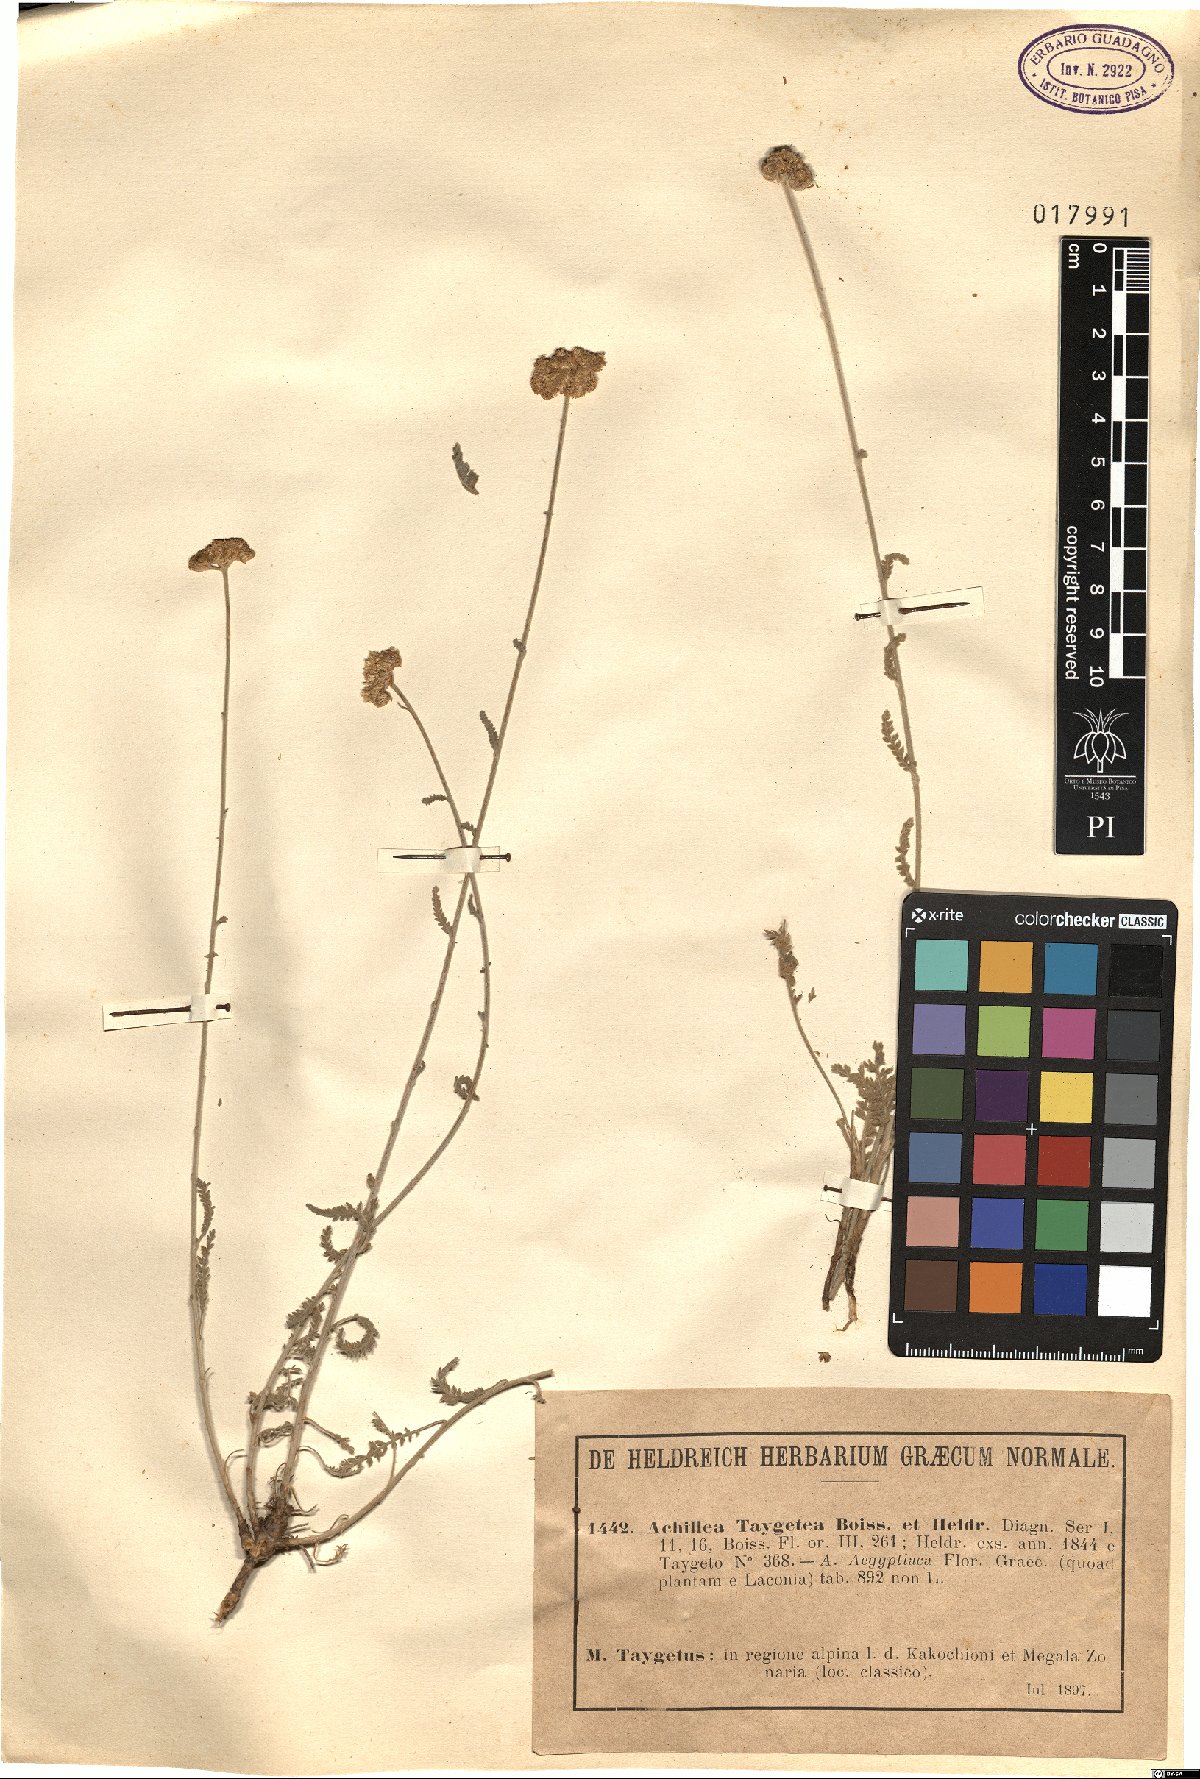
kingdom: Plantae
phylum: Tracheophyta
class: Magnoliopsida
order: Asterales
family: Asteraceae
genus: Achillea
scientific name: Achillea taygetea
